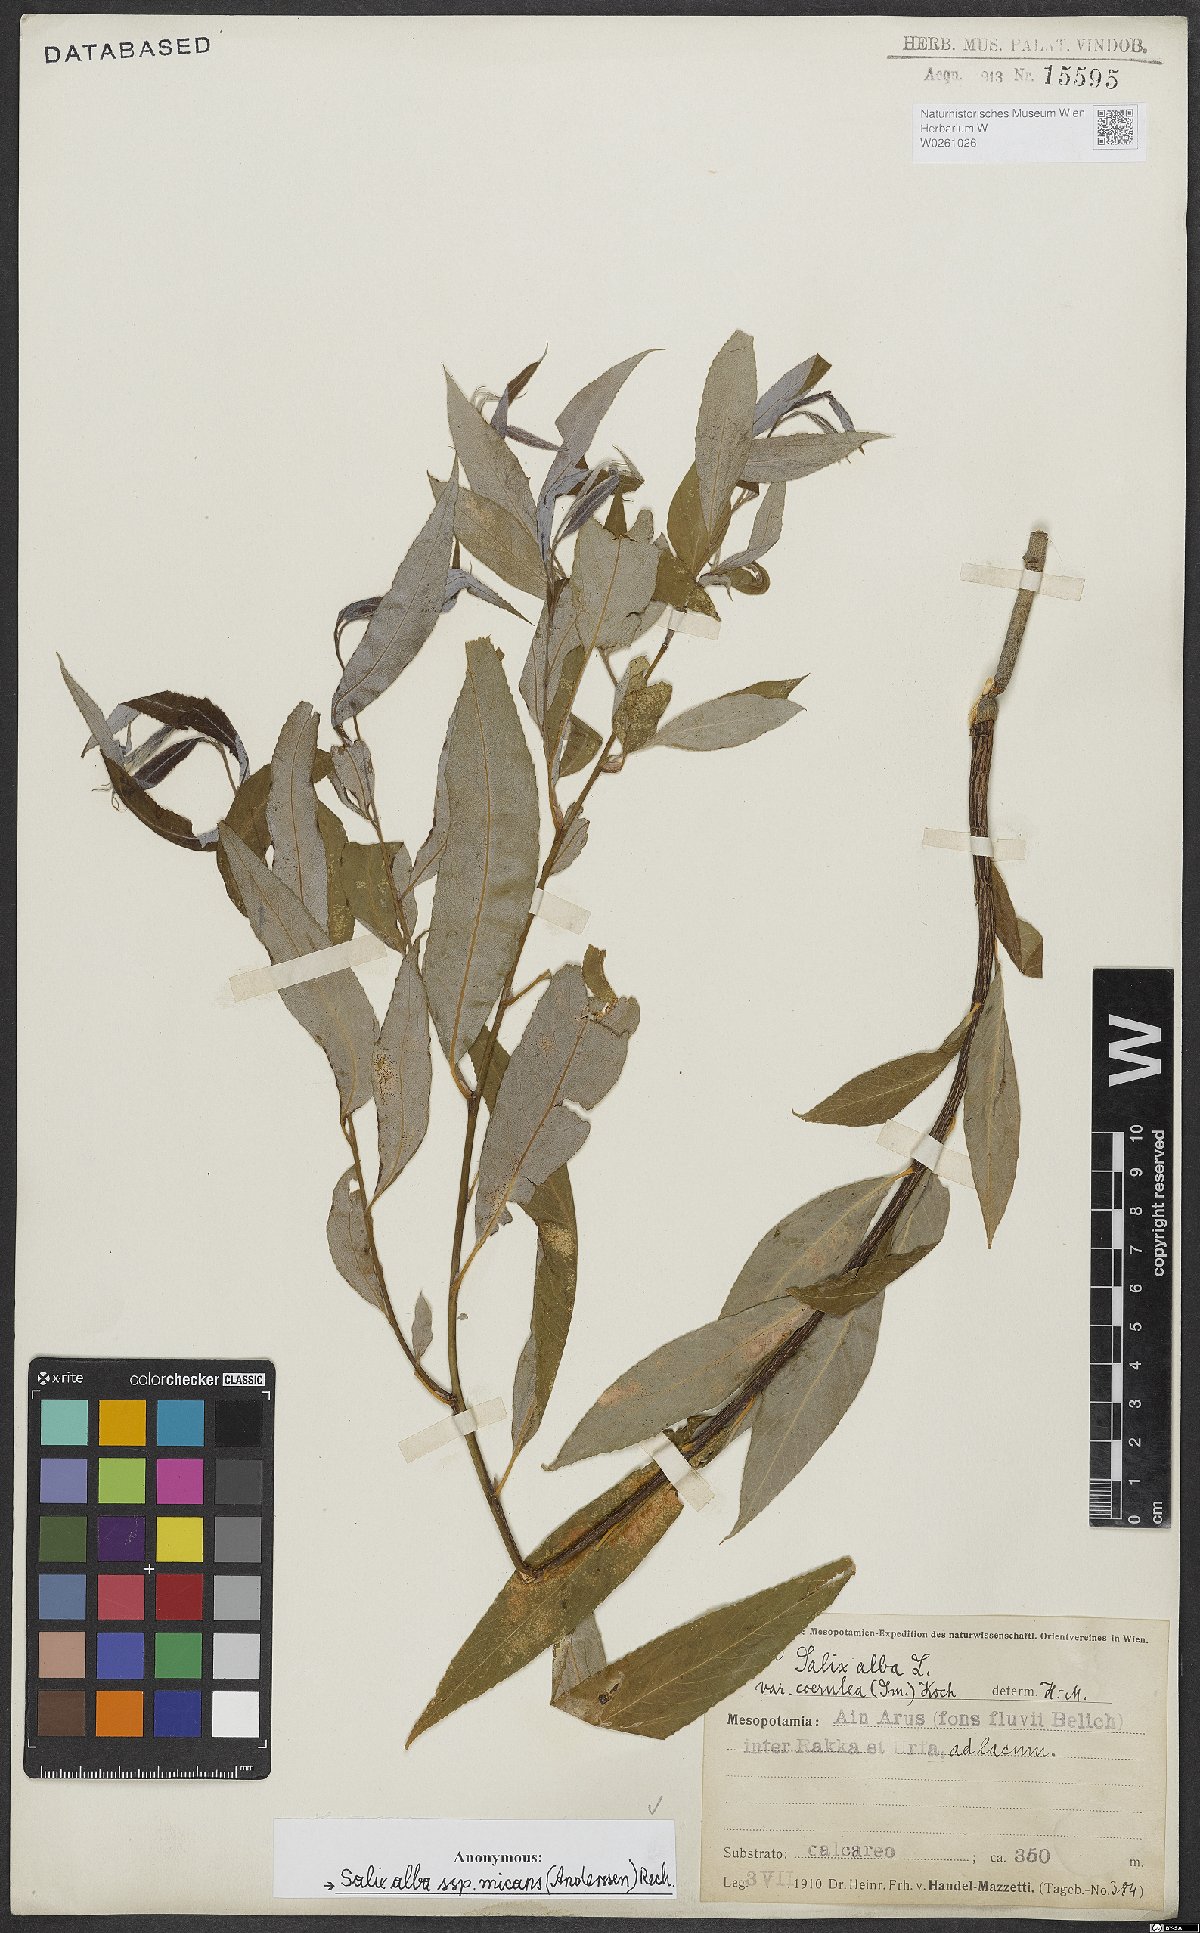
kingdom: Plantae
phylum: Tracheophyta
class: Magnoliopsida
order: Malpighiales
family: Salicaceae
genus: Salix
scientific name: Salix alba
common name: White willow
